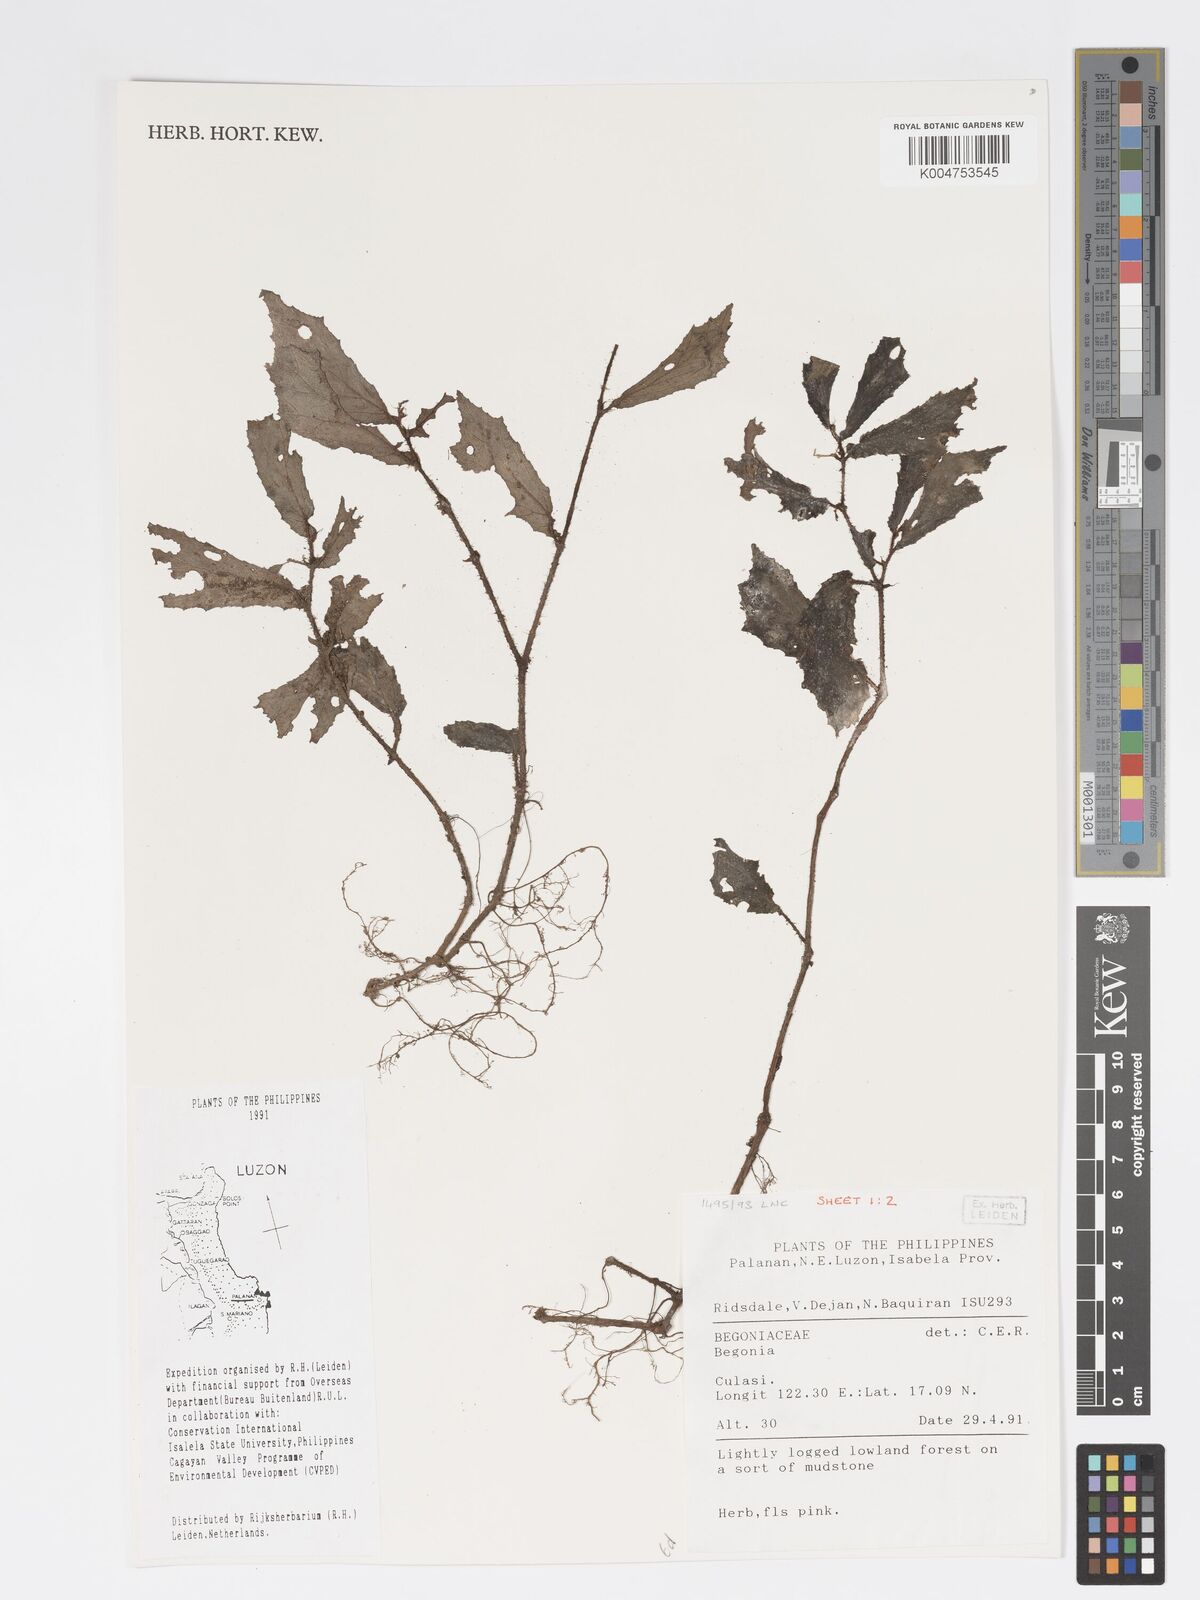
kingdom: Plantae
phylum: Tracheophyta
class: Magnoliopsida
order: Cucurbitales
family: Begoniaceae
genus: Begonia
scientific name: Begonia
